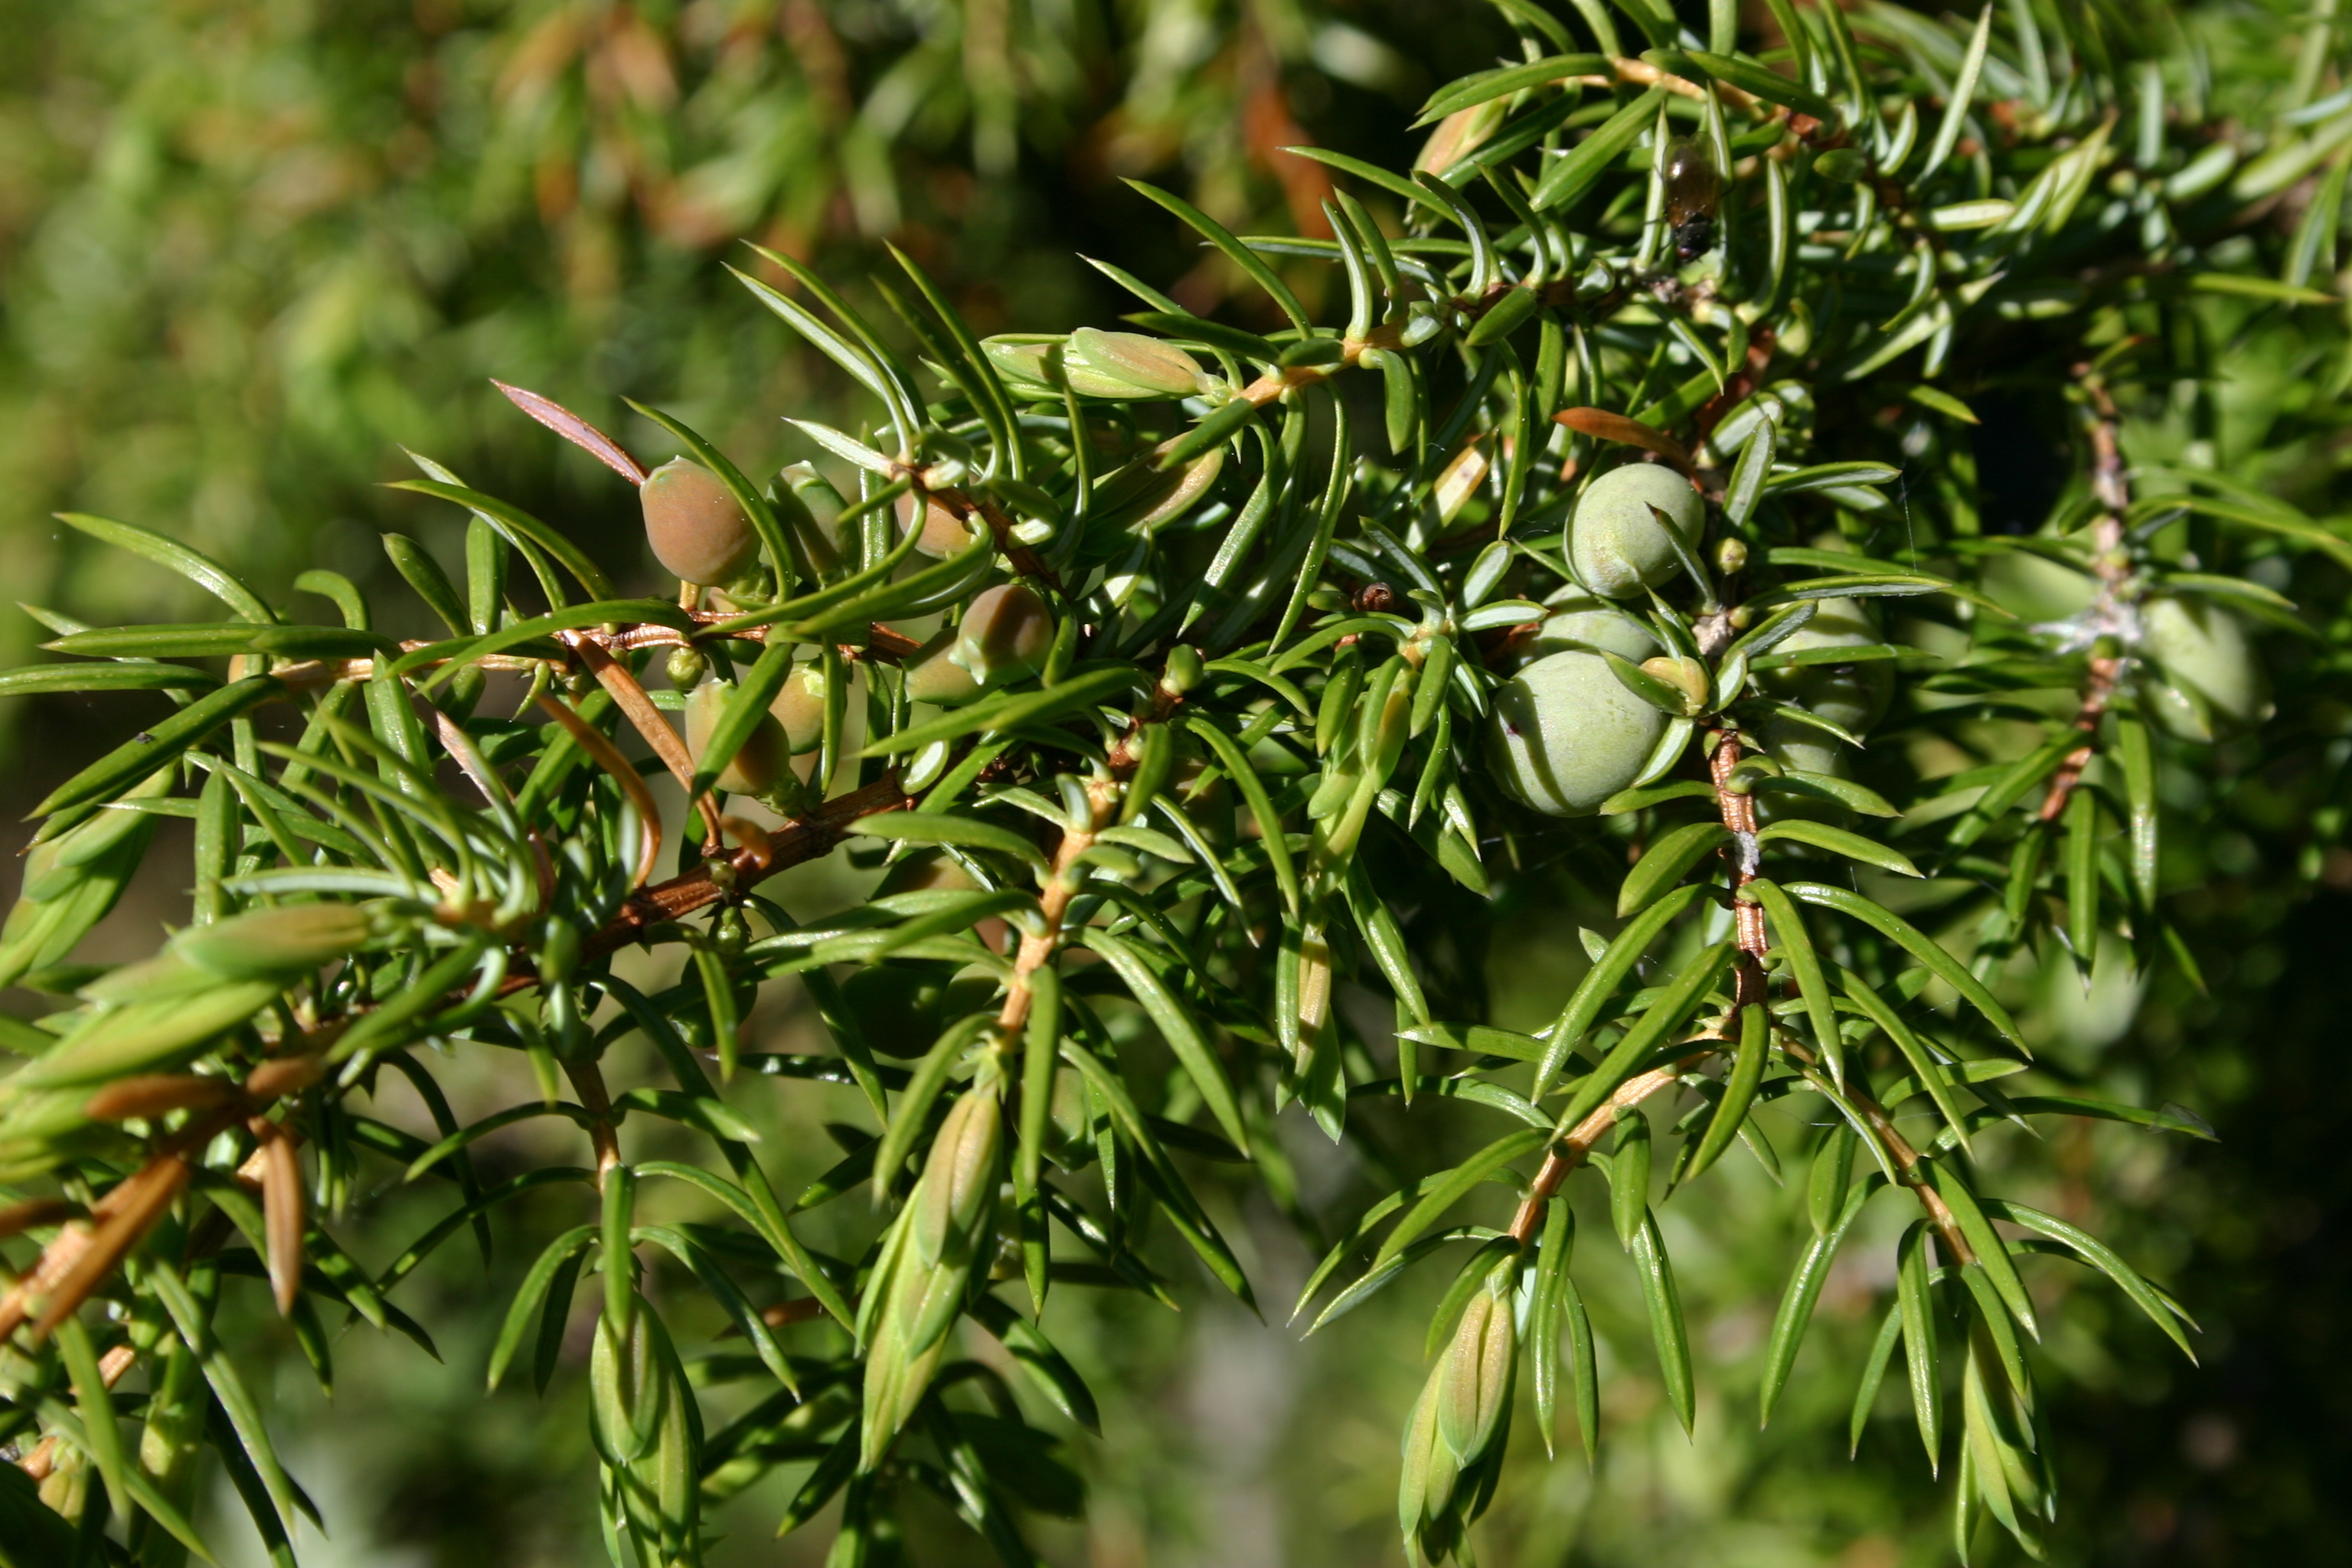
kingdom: Plantae
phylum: Tracheophyta
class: Pinopsida
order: Pinales
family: Cupressaceae
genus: Juniperus
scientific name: Juniperus communis
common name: Common juniper
